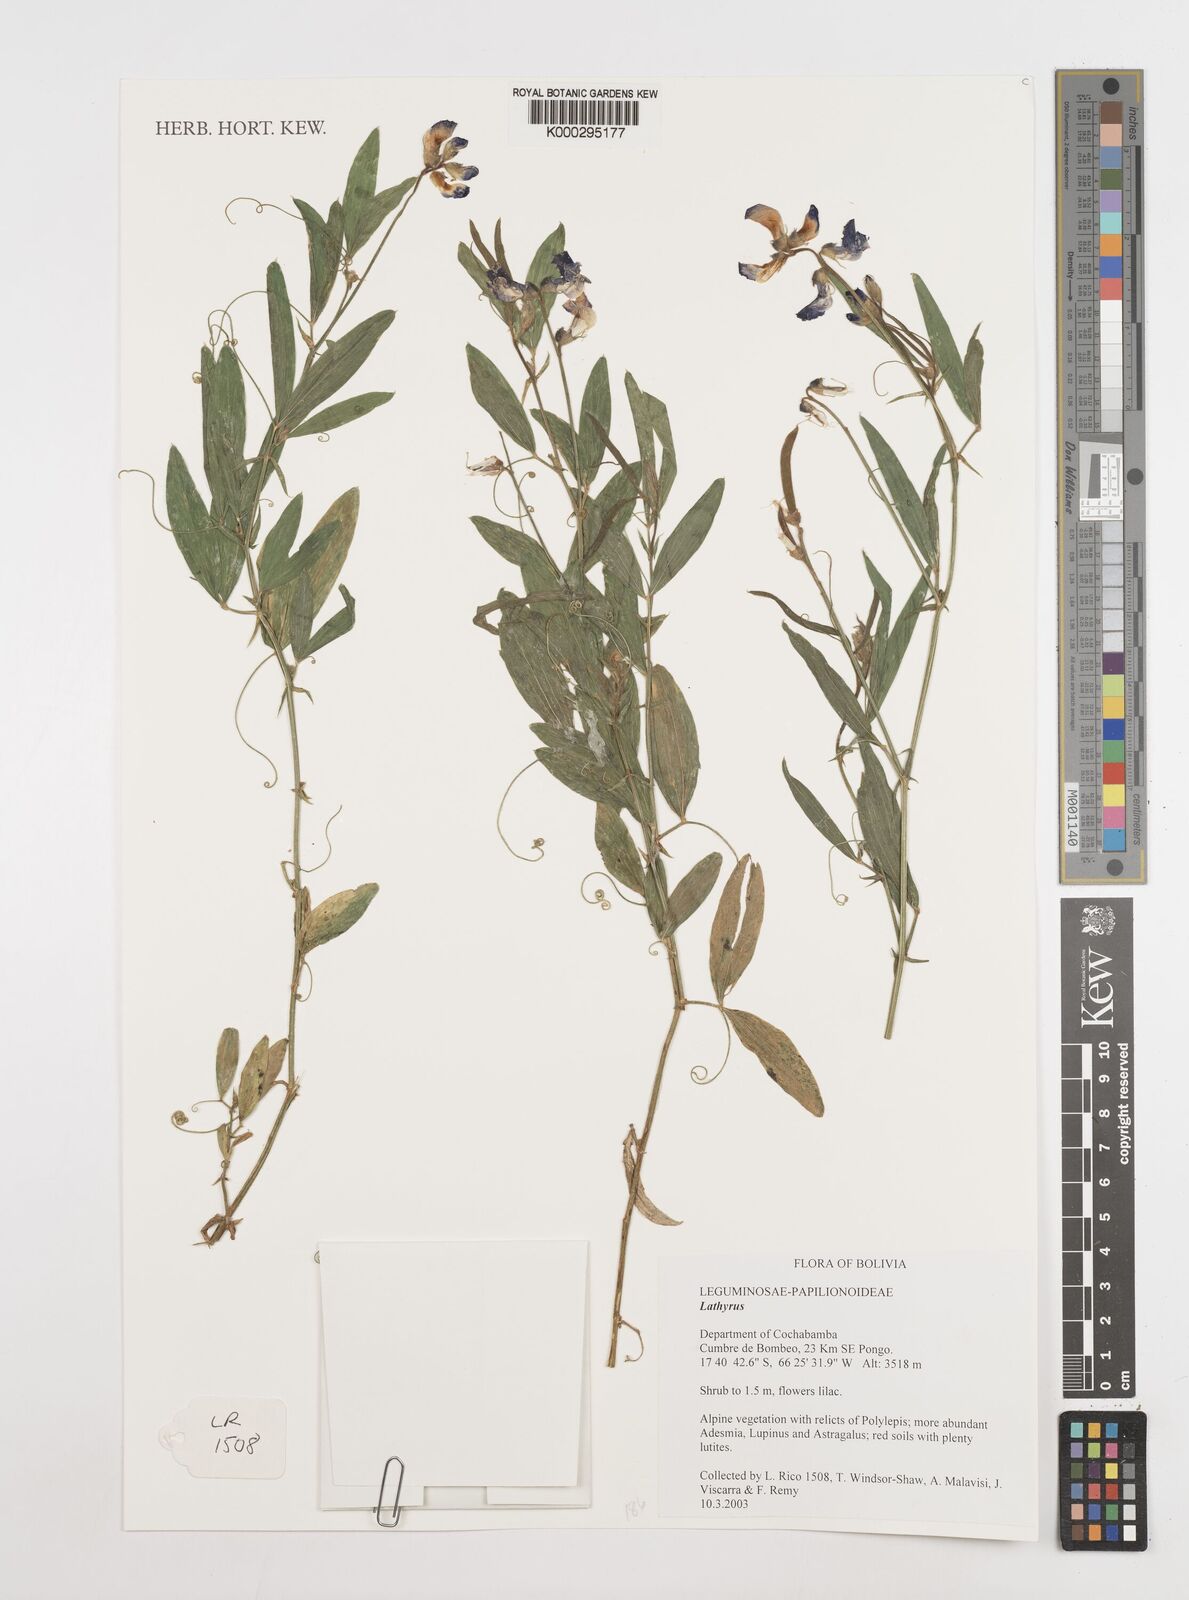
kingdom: Plantae
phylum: Tracheophyta
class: Magnoliopsida
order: Fabales
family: Fabaceae
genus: Lathyrus
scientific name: Lathyrus
